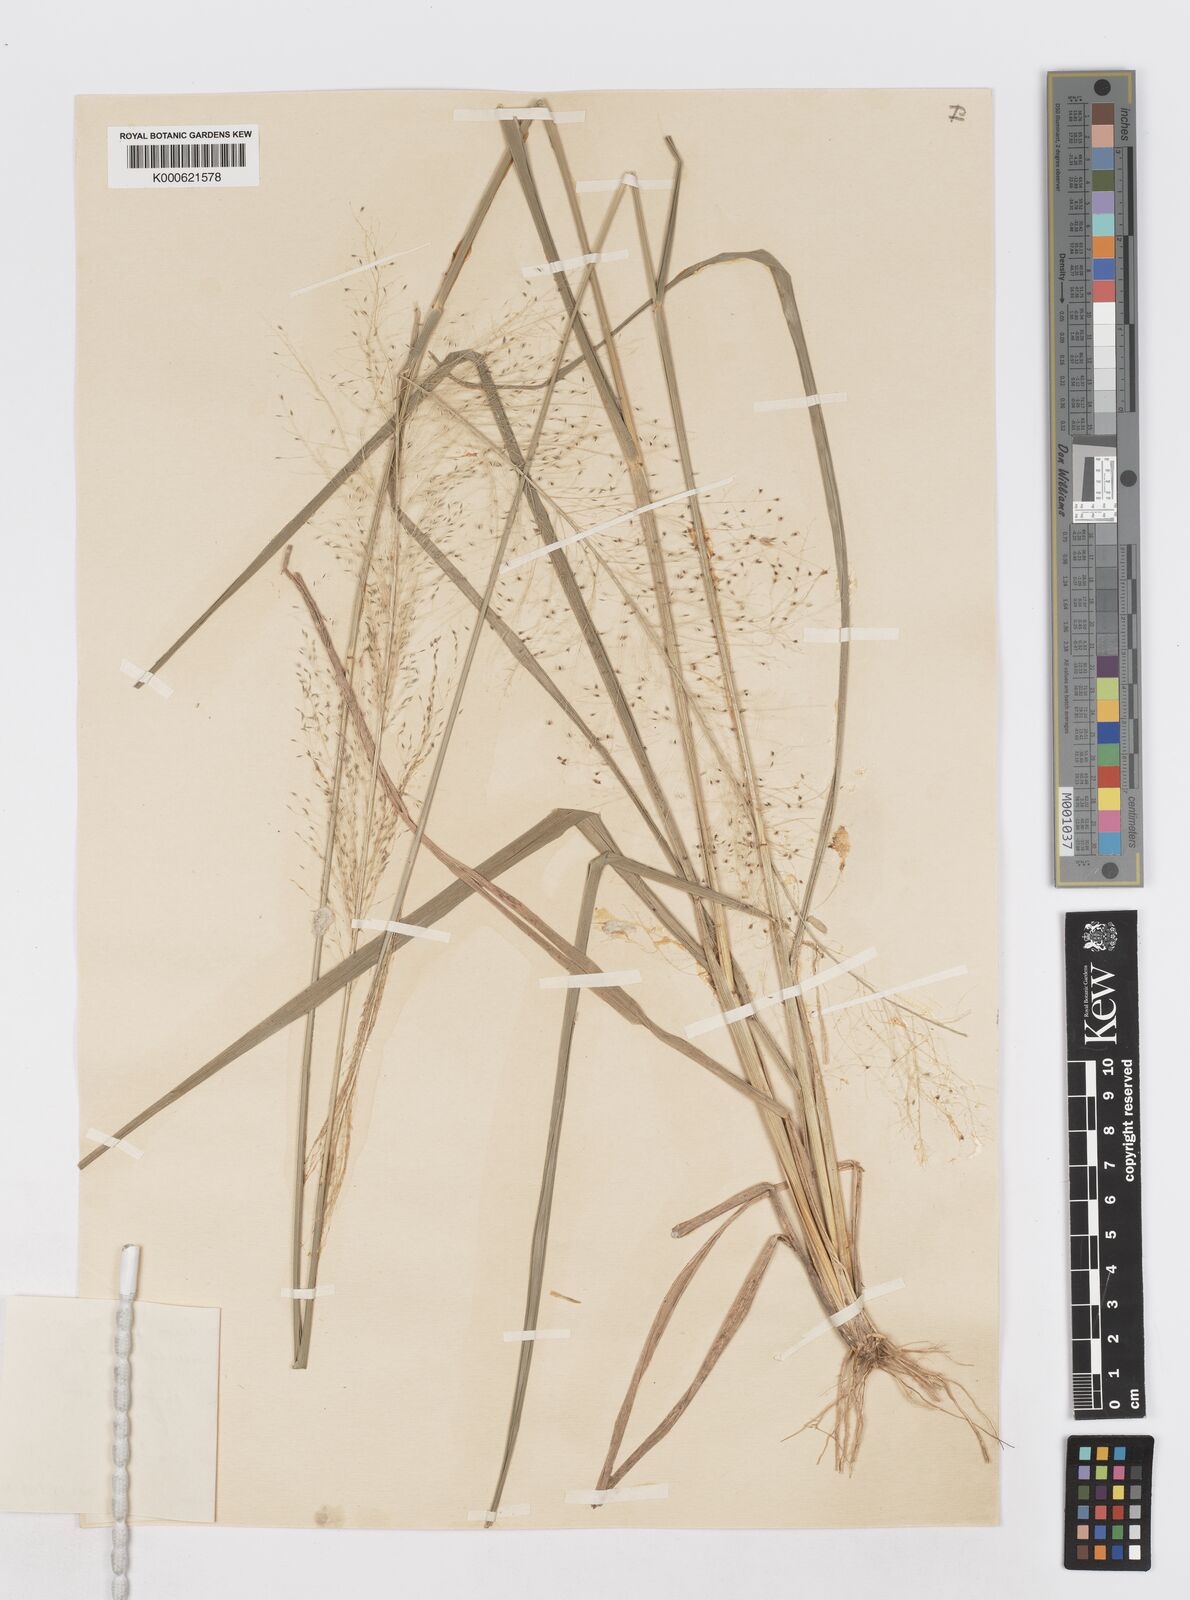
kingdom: Plantae
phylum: Tracheophyta
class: Liliopsida
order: Poales
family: Poaceae
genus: Sporobolus
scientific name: Sporobolus
